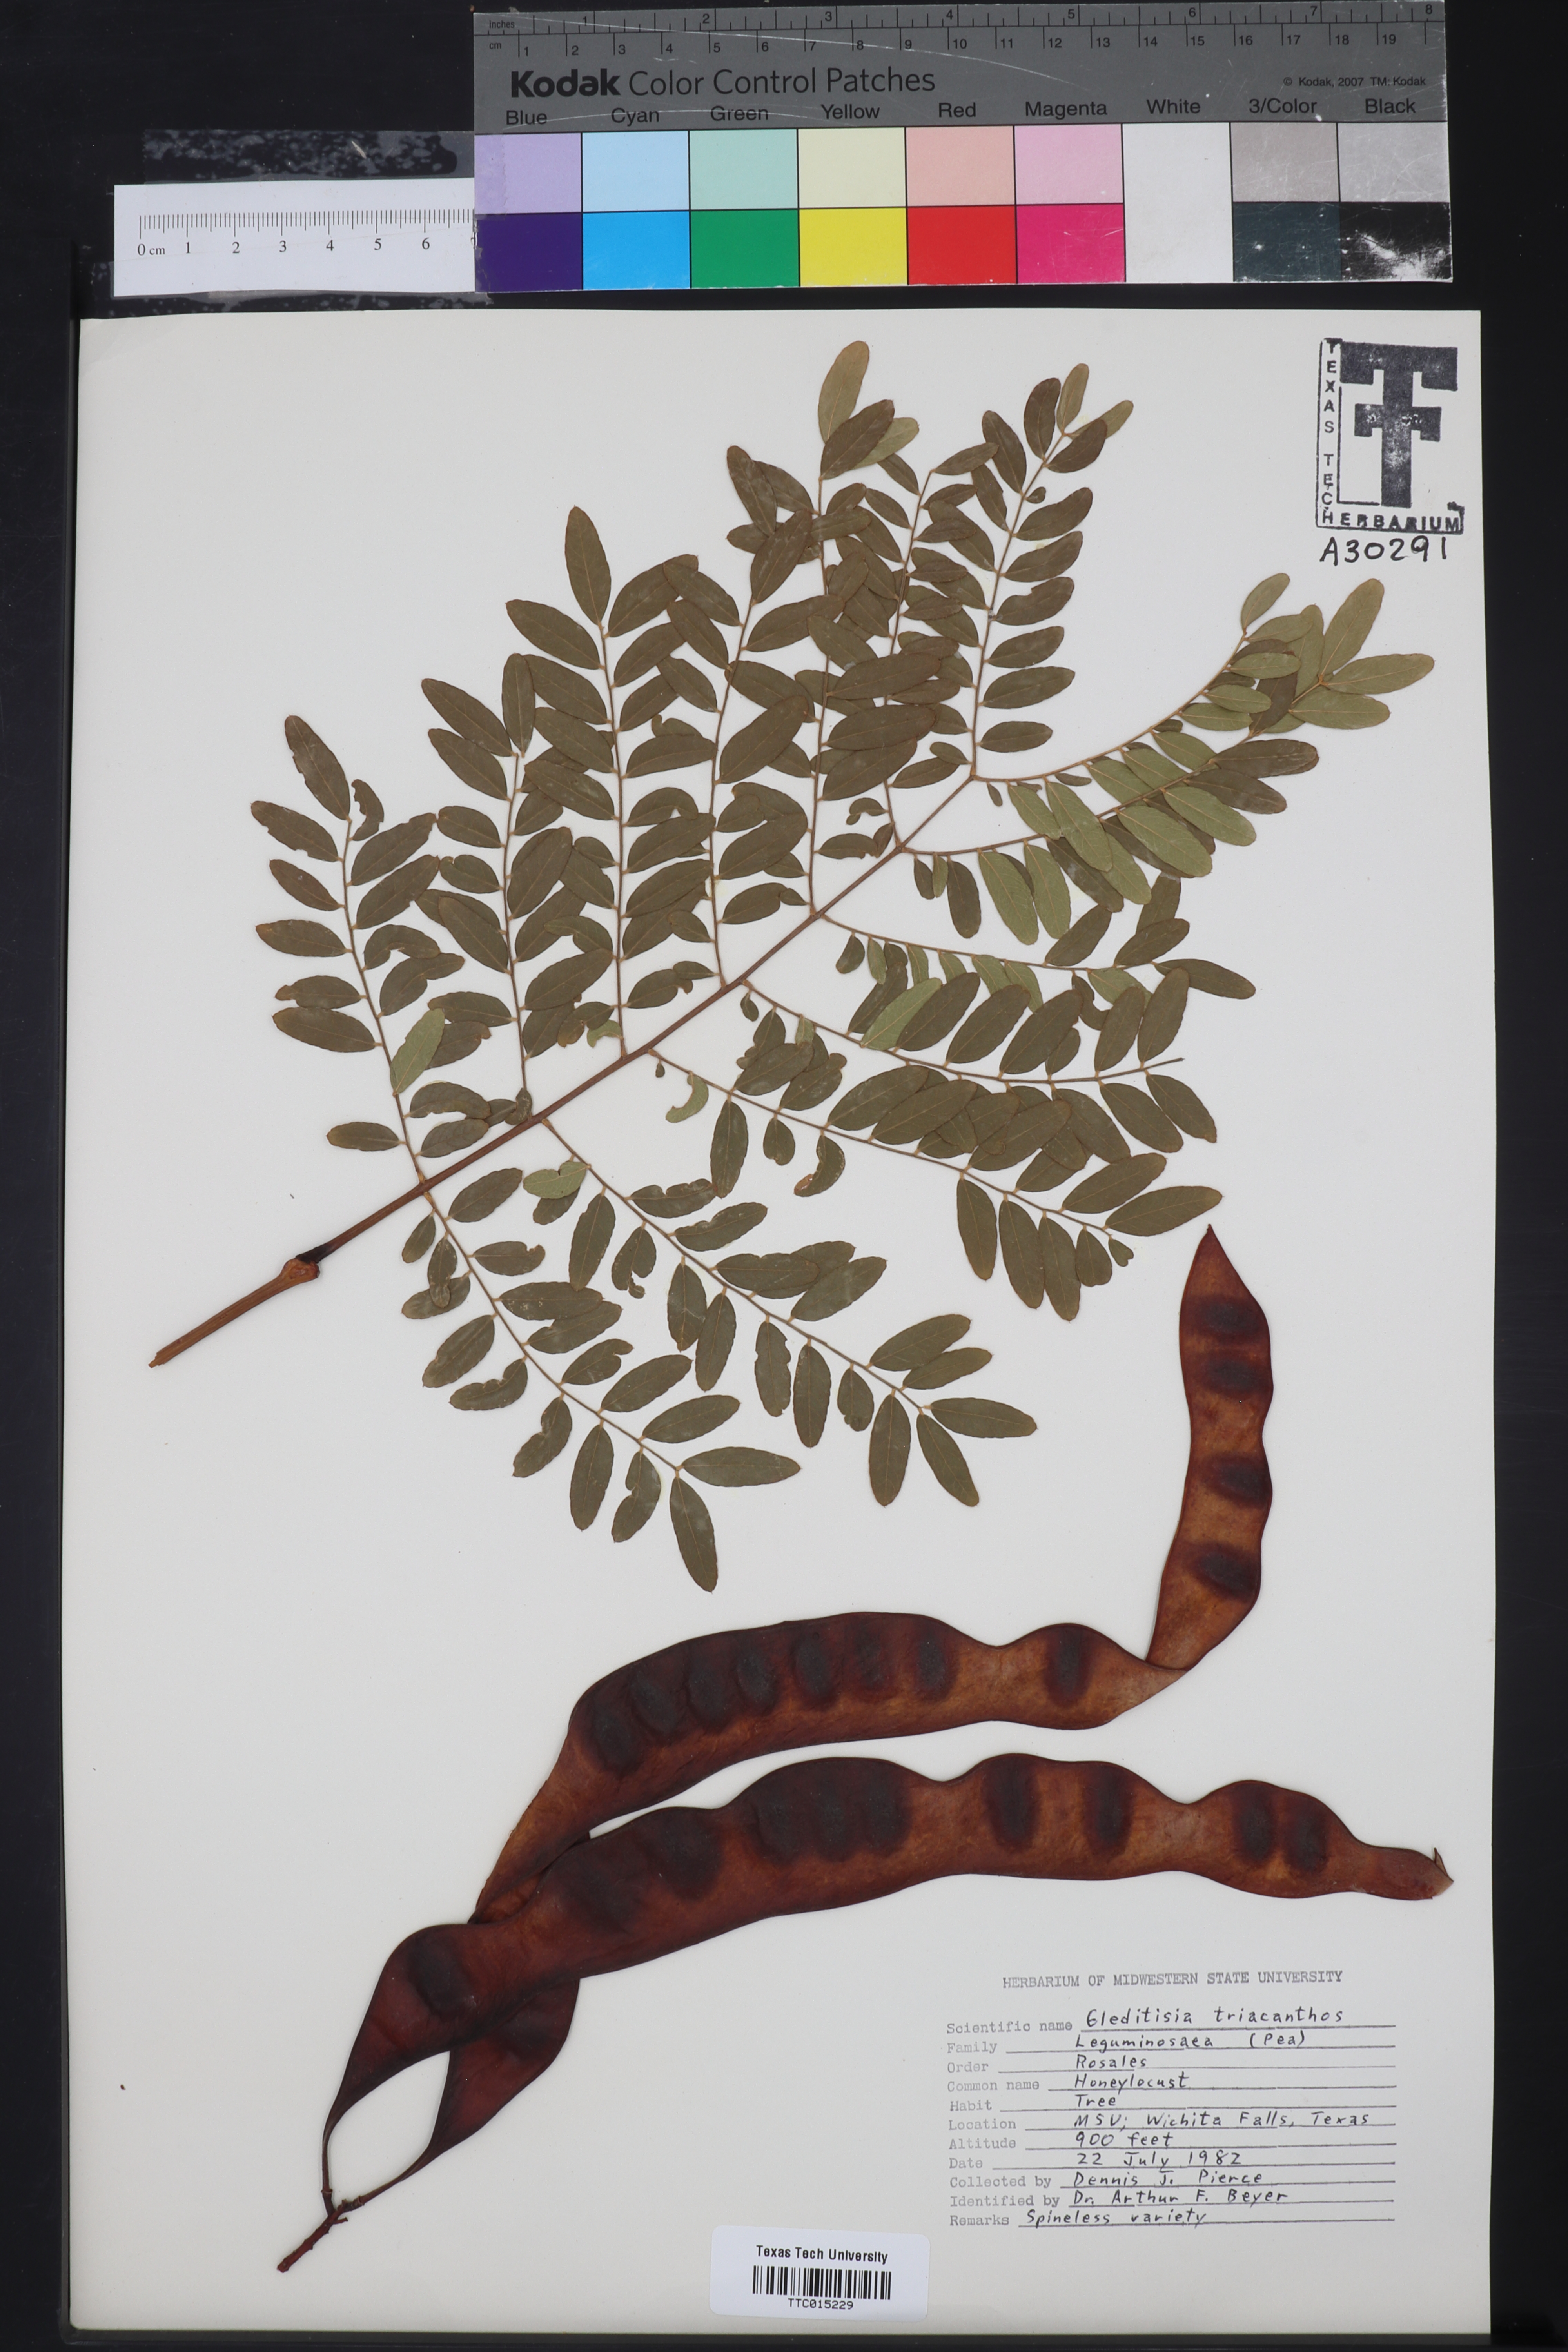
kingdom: Plantae
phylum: Tracheophyta
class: Magnoliopsida
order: Fabales
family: Fabaceae
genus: Gleditsia
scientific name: Gleditsia triacanthos
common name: Common honeylocust
